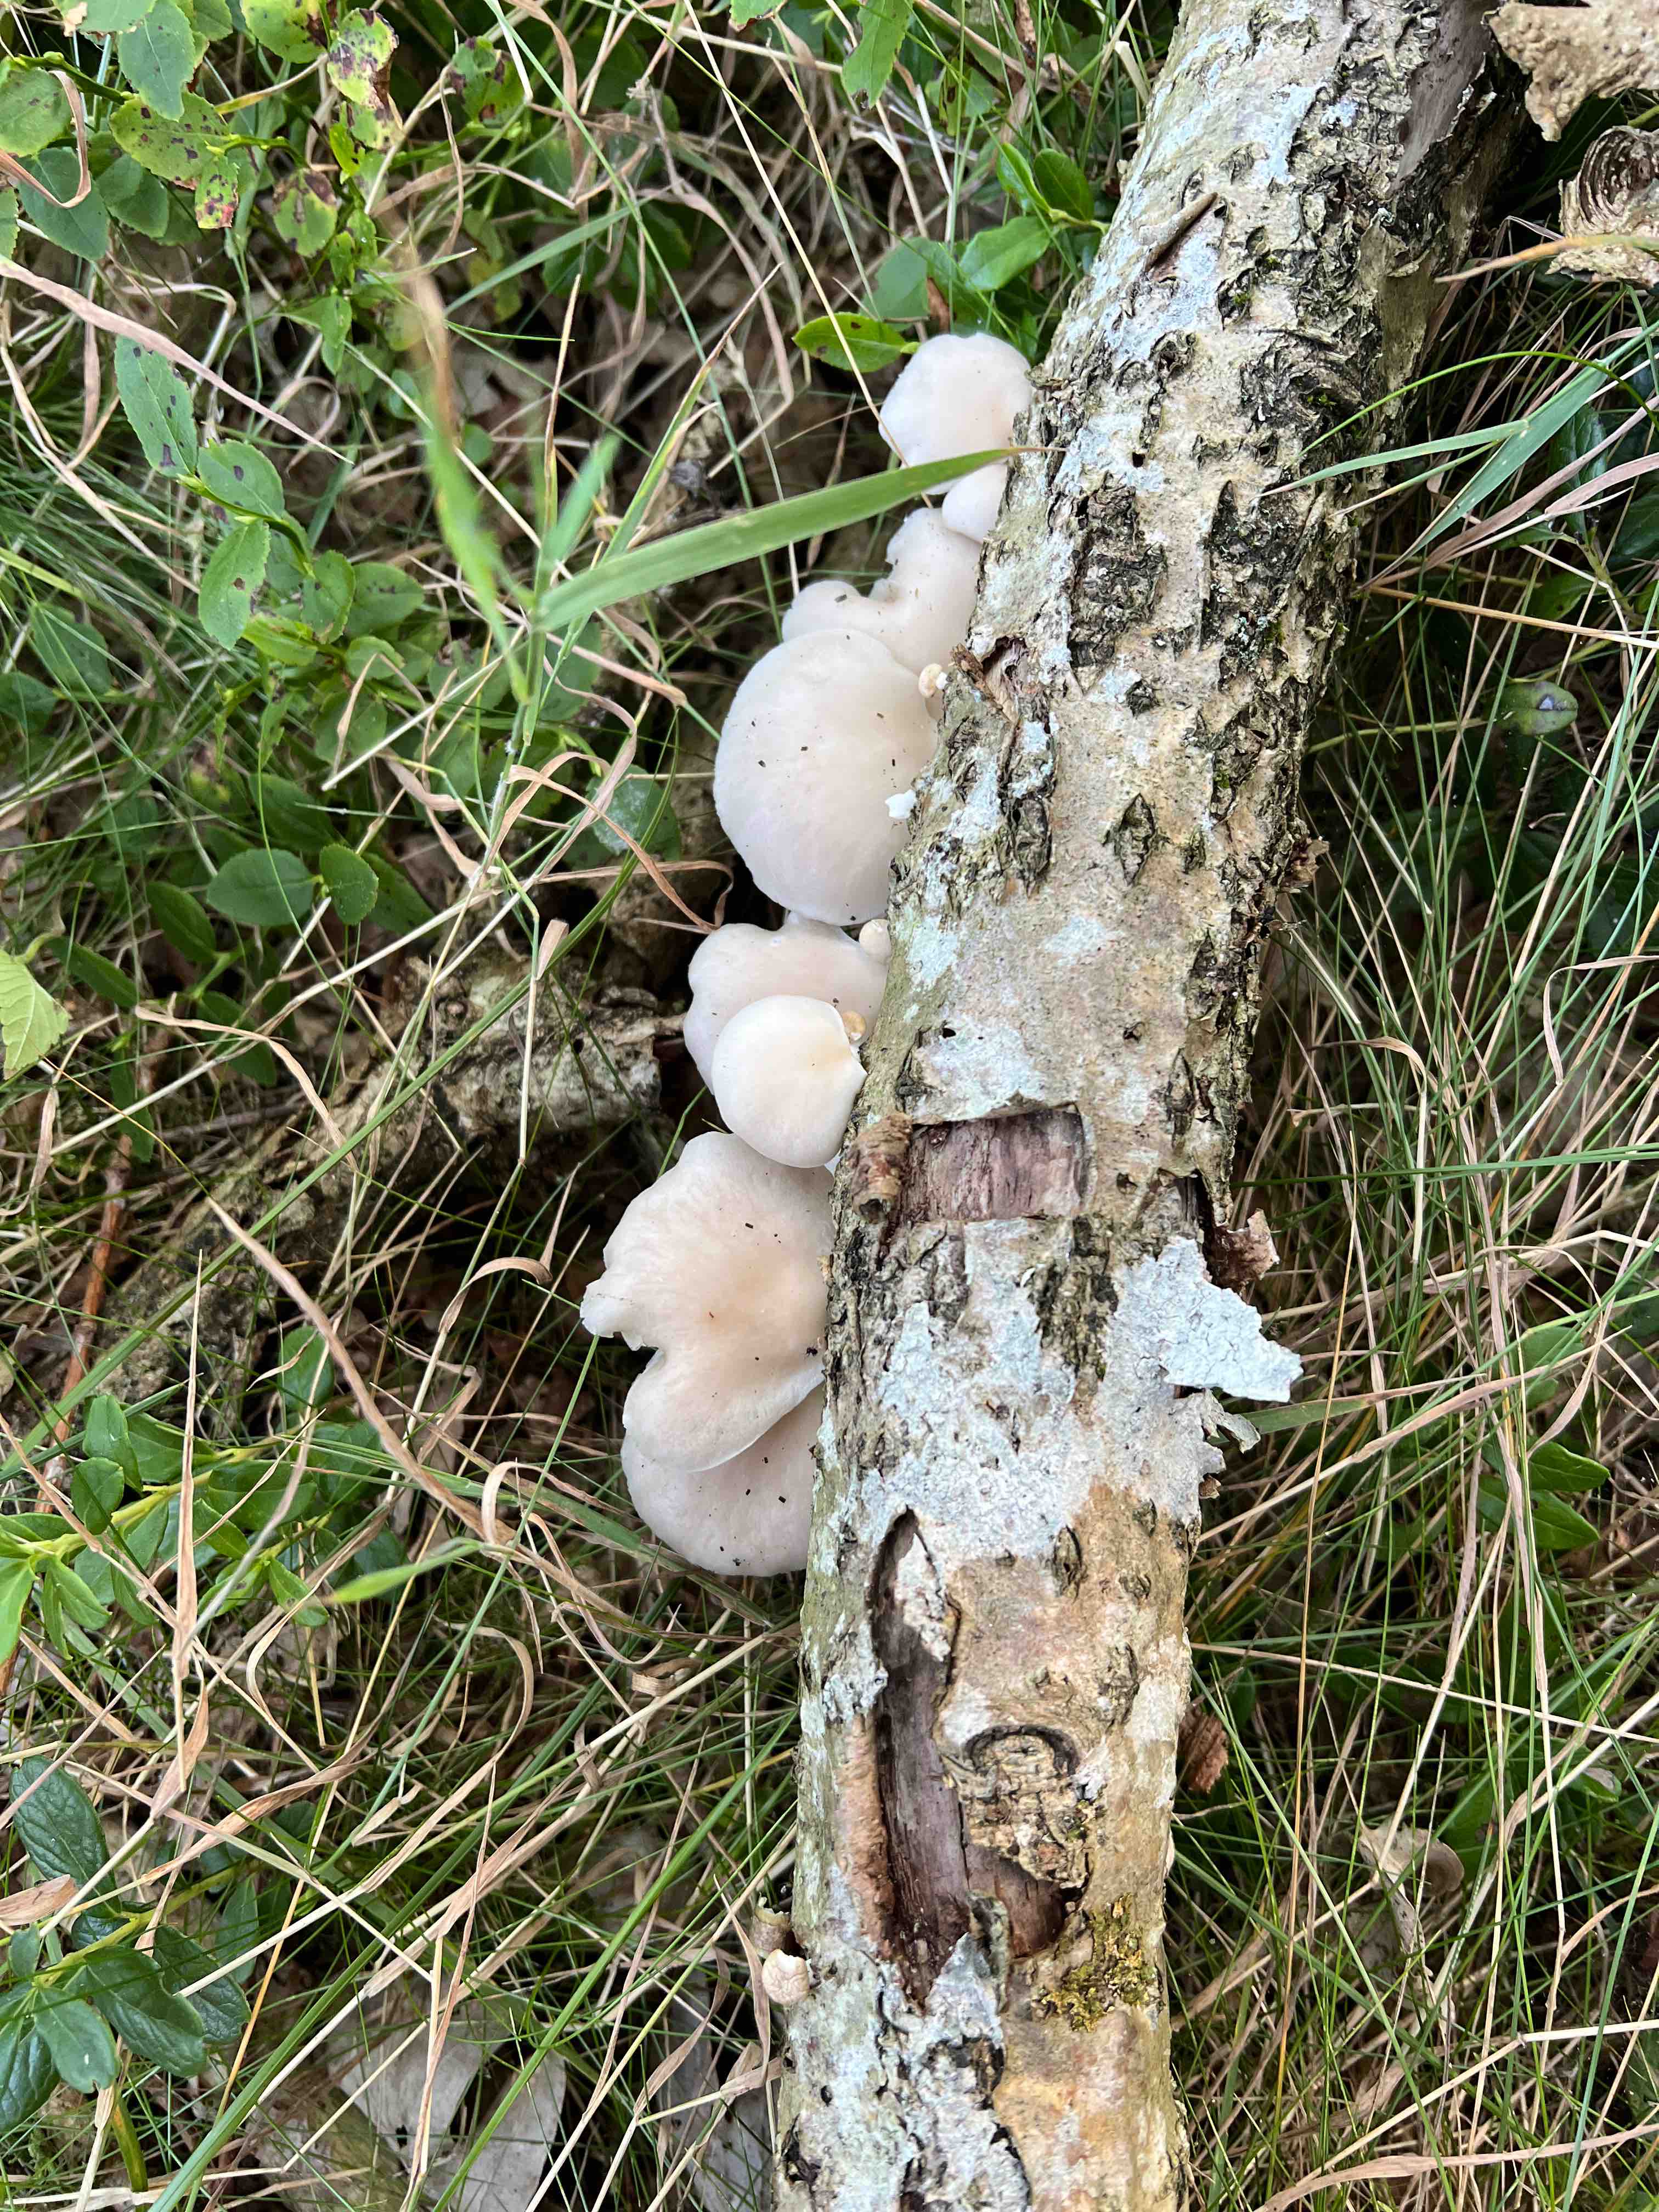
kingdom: Fungi
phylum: Basidiomycota
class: Agaricomycetes
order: Agaricales
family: Pleurotaceae
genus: Pleurotus
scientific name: Pleurotus pulmonarius
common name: sommer-østershat
